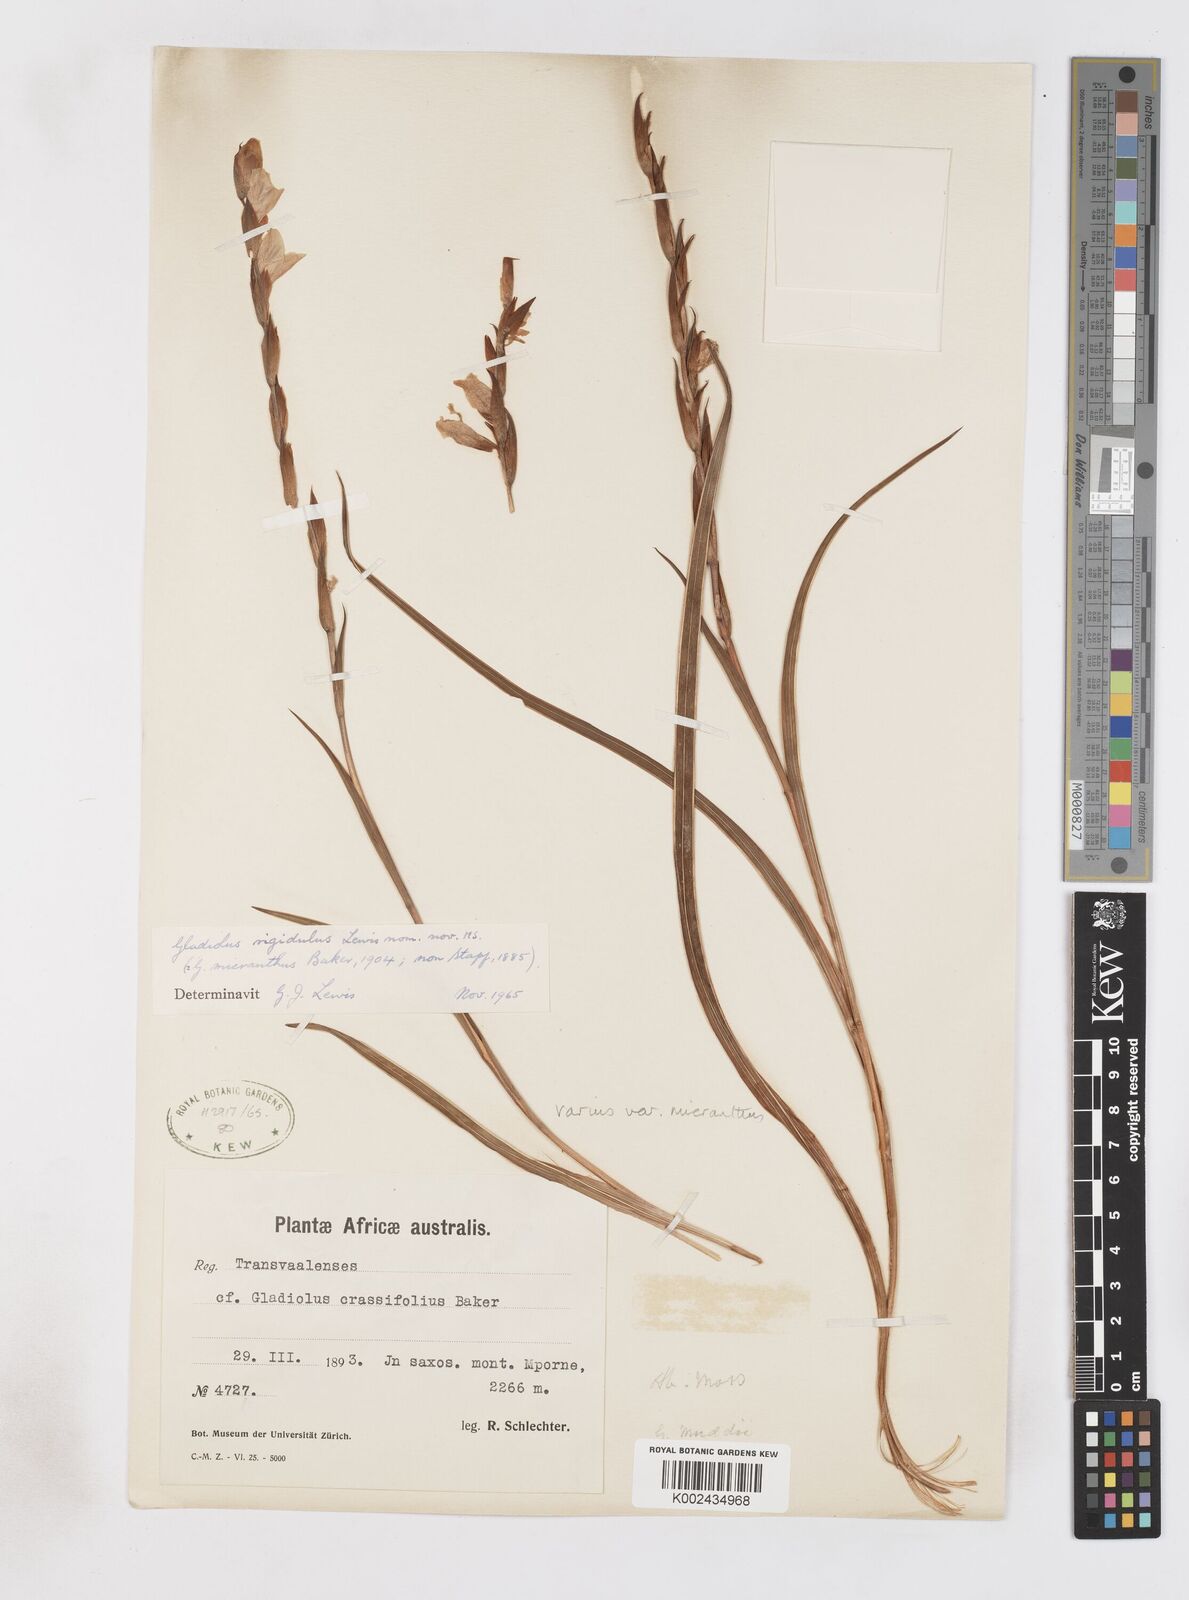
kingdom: Plantae
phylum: Tracheophyta
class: Liliopsida
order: Asparagales
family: Iridaceae
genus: Gladiolus
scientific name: Gladiolus ferrugineus
